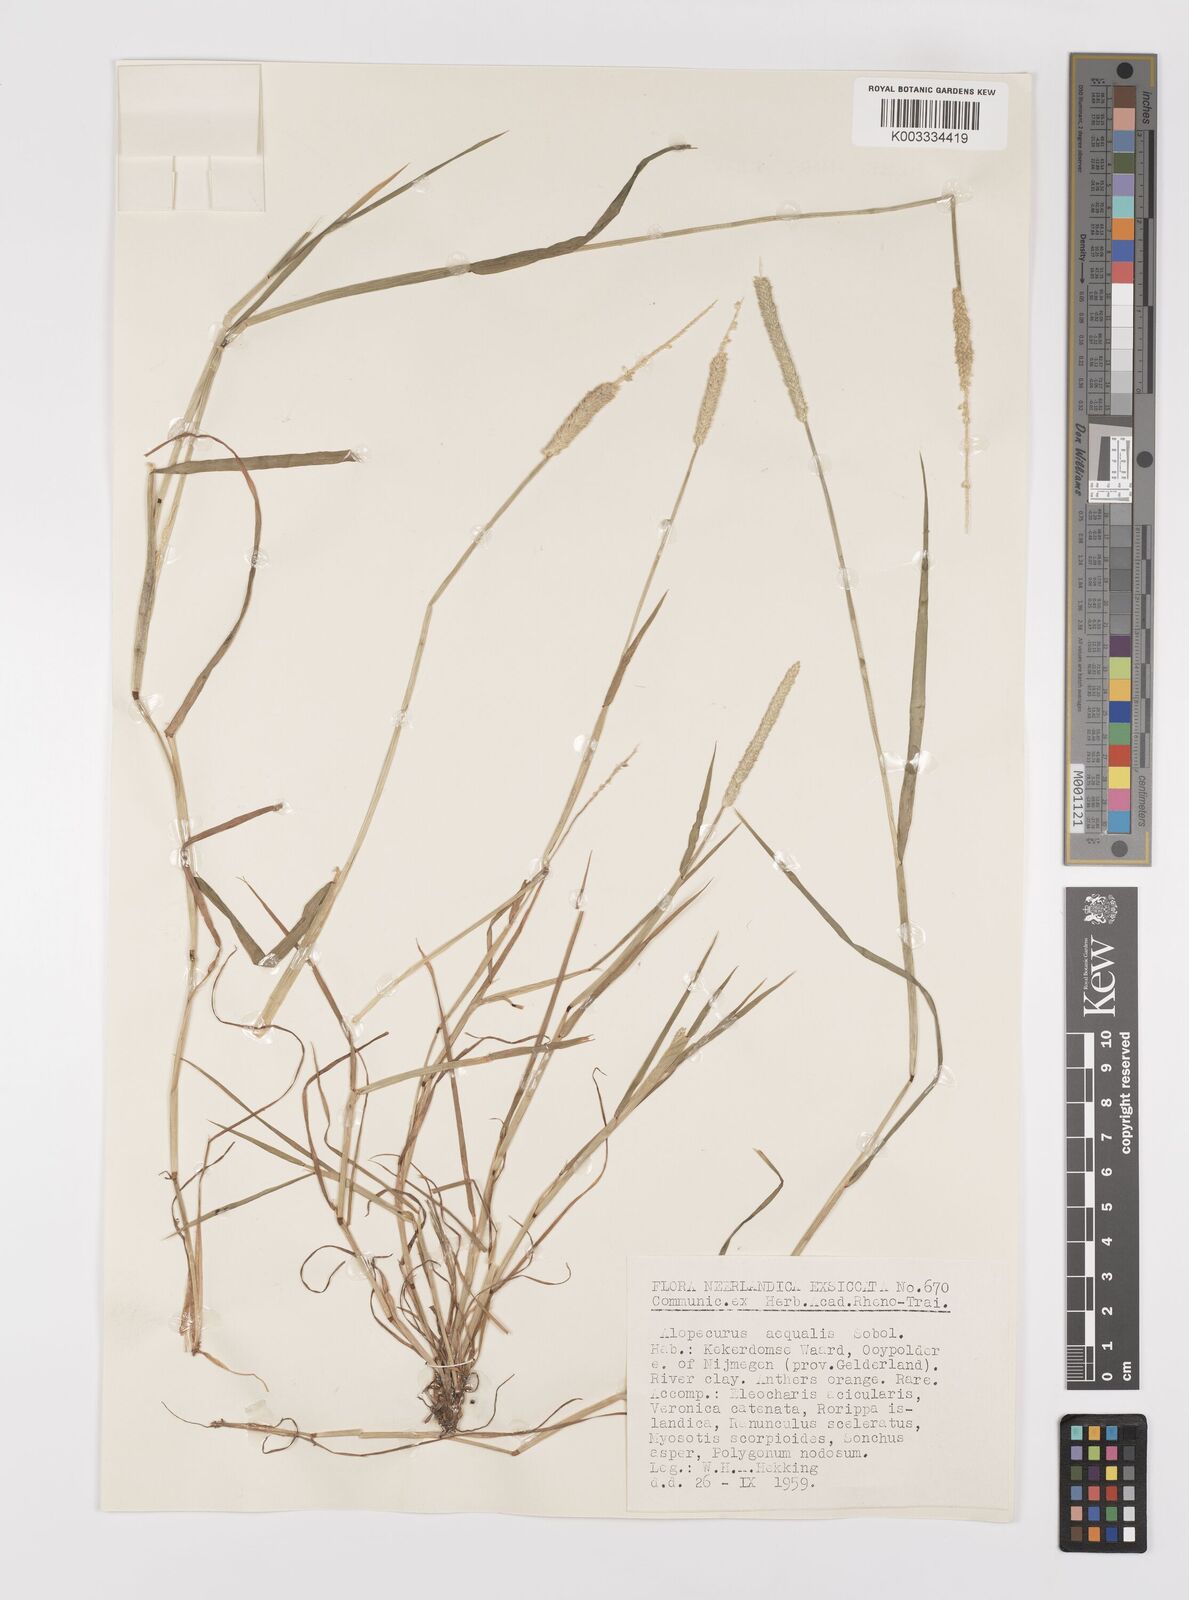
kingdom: Plantae
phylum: Tracheophyta
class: Liliopsida
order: Poales
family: Poaceae
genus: Alopecurus
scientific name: Alopecurus aequalis
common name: Orange foxtail
